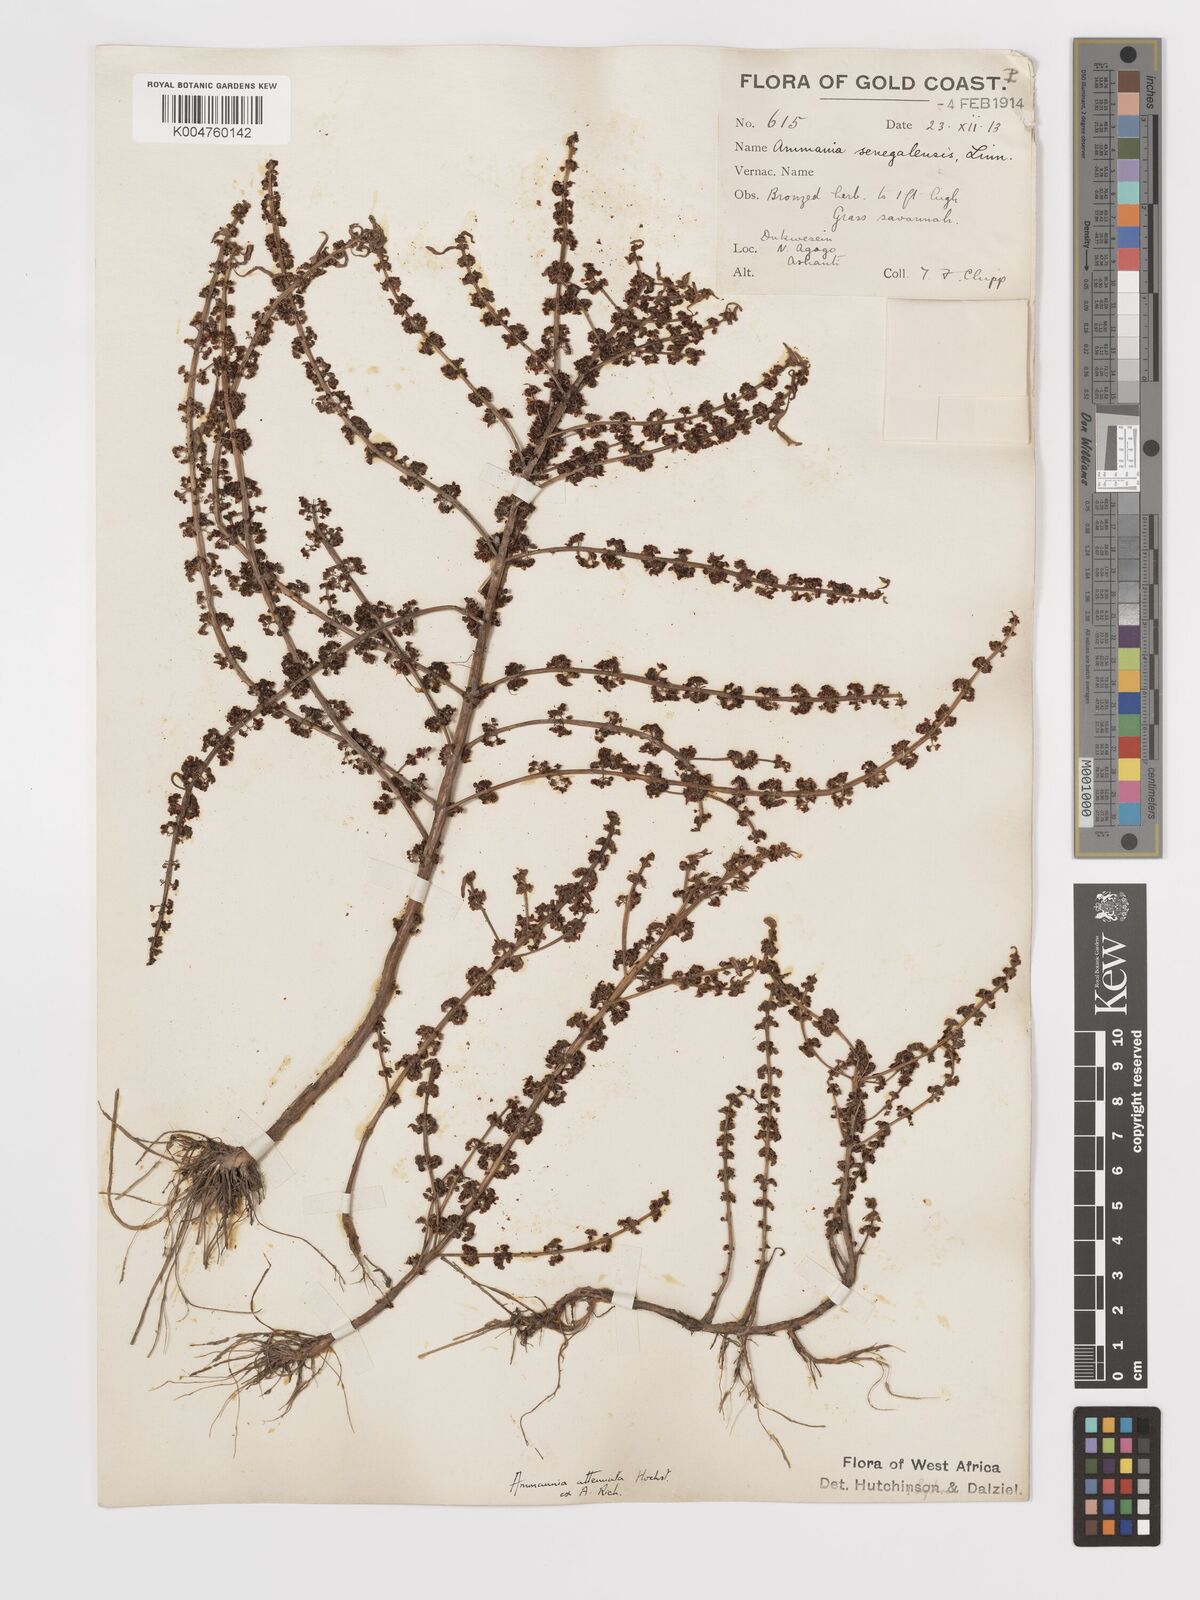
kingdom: Plantae
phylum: Tracheophyta
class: Magnoliopsida
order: Myrtales
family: Lythraceae
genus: Ammannia
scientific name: Ammannia baccifera
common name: Blistering ammania
